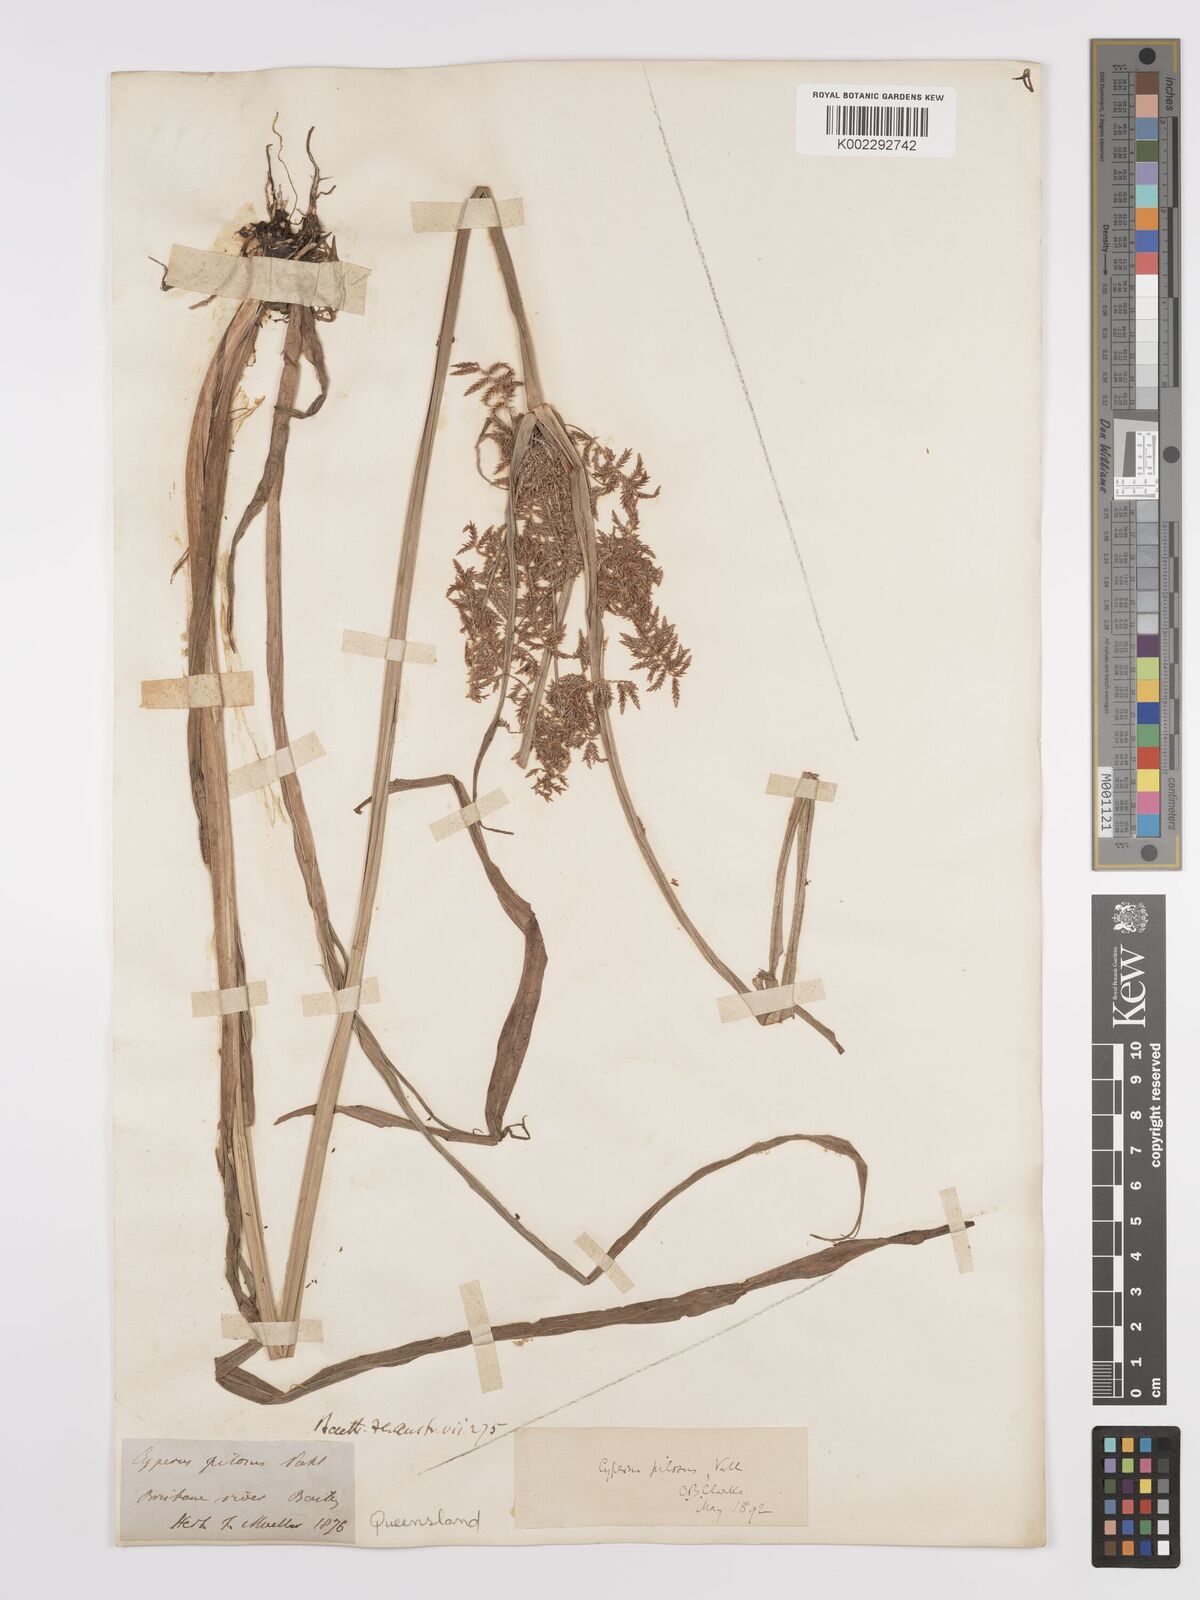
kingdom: Plantae
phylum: Tracheophyta
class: Liliopsida
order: Poales
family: Cyperaceae
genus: Cyperus
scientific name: Cyperus pilosus
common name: Fuzzy flatsedge
